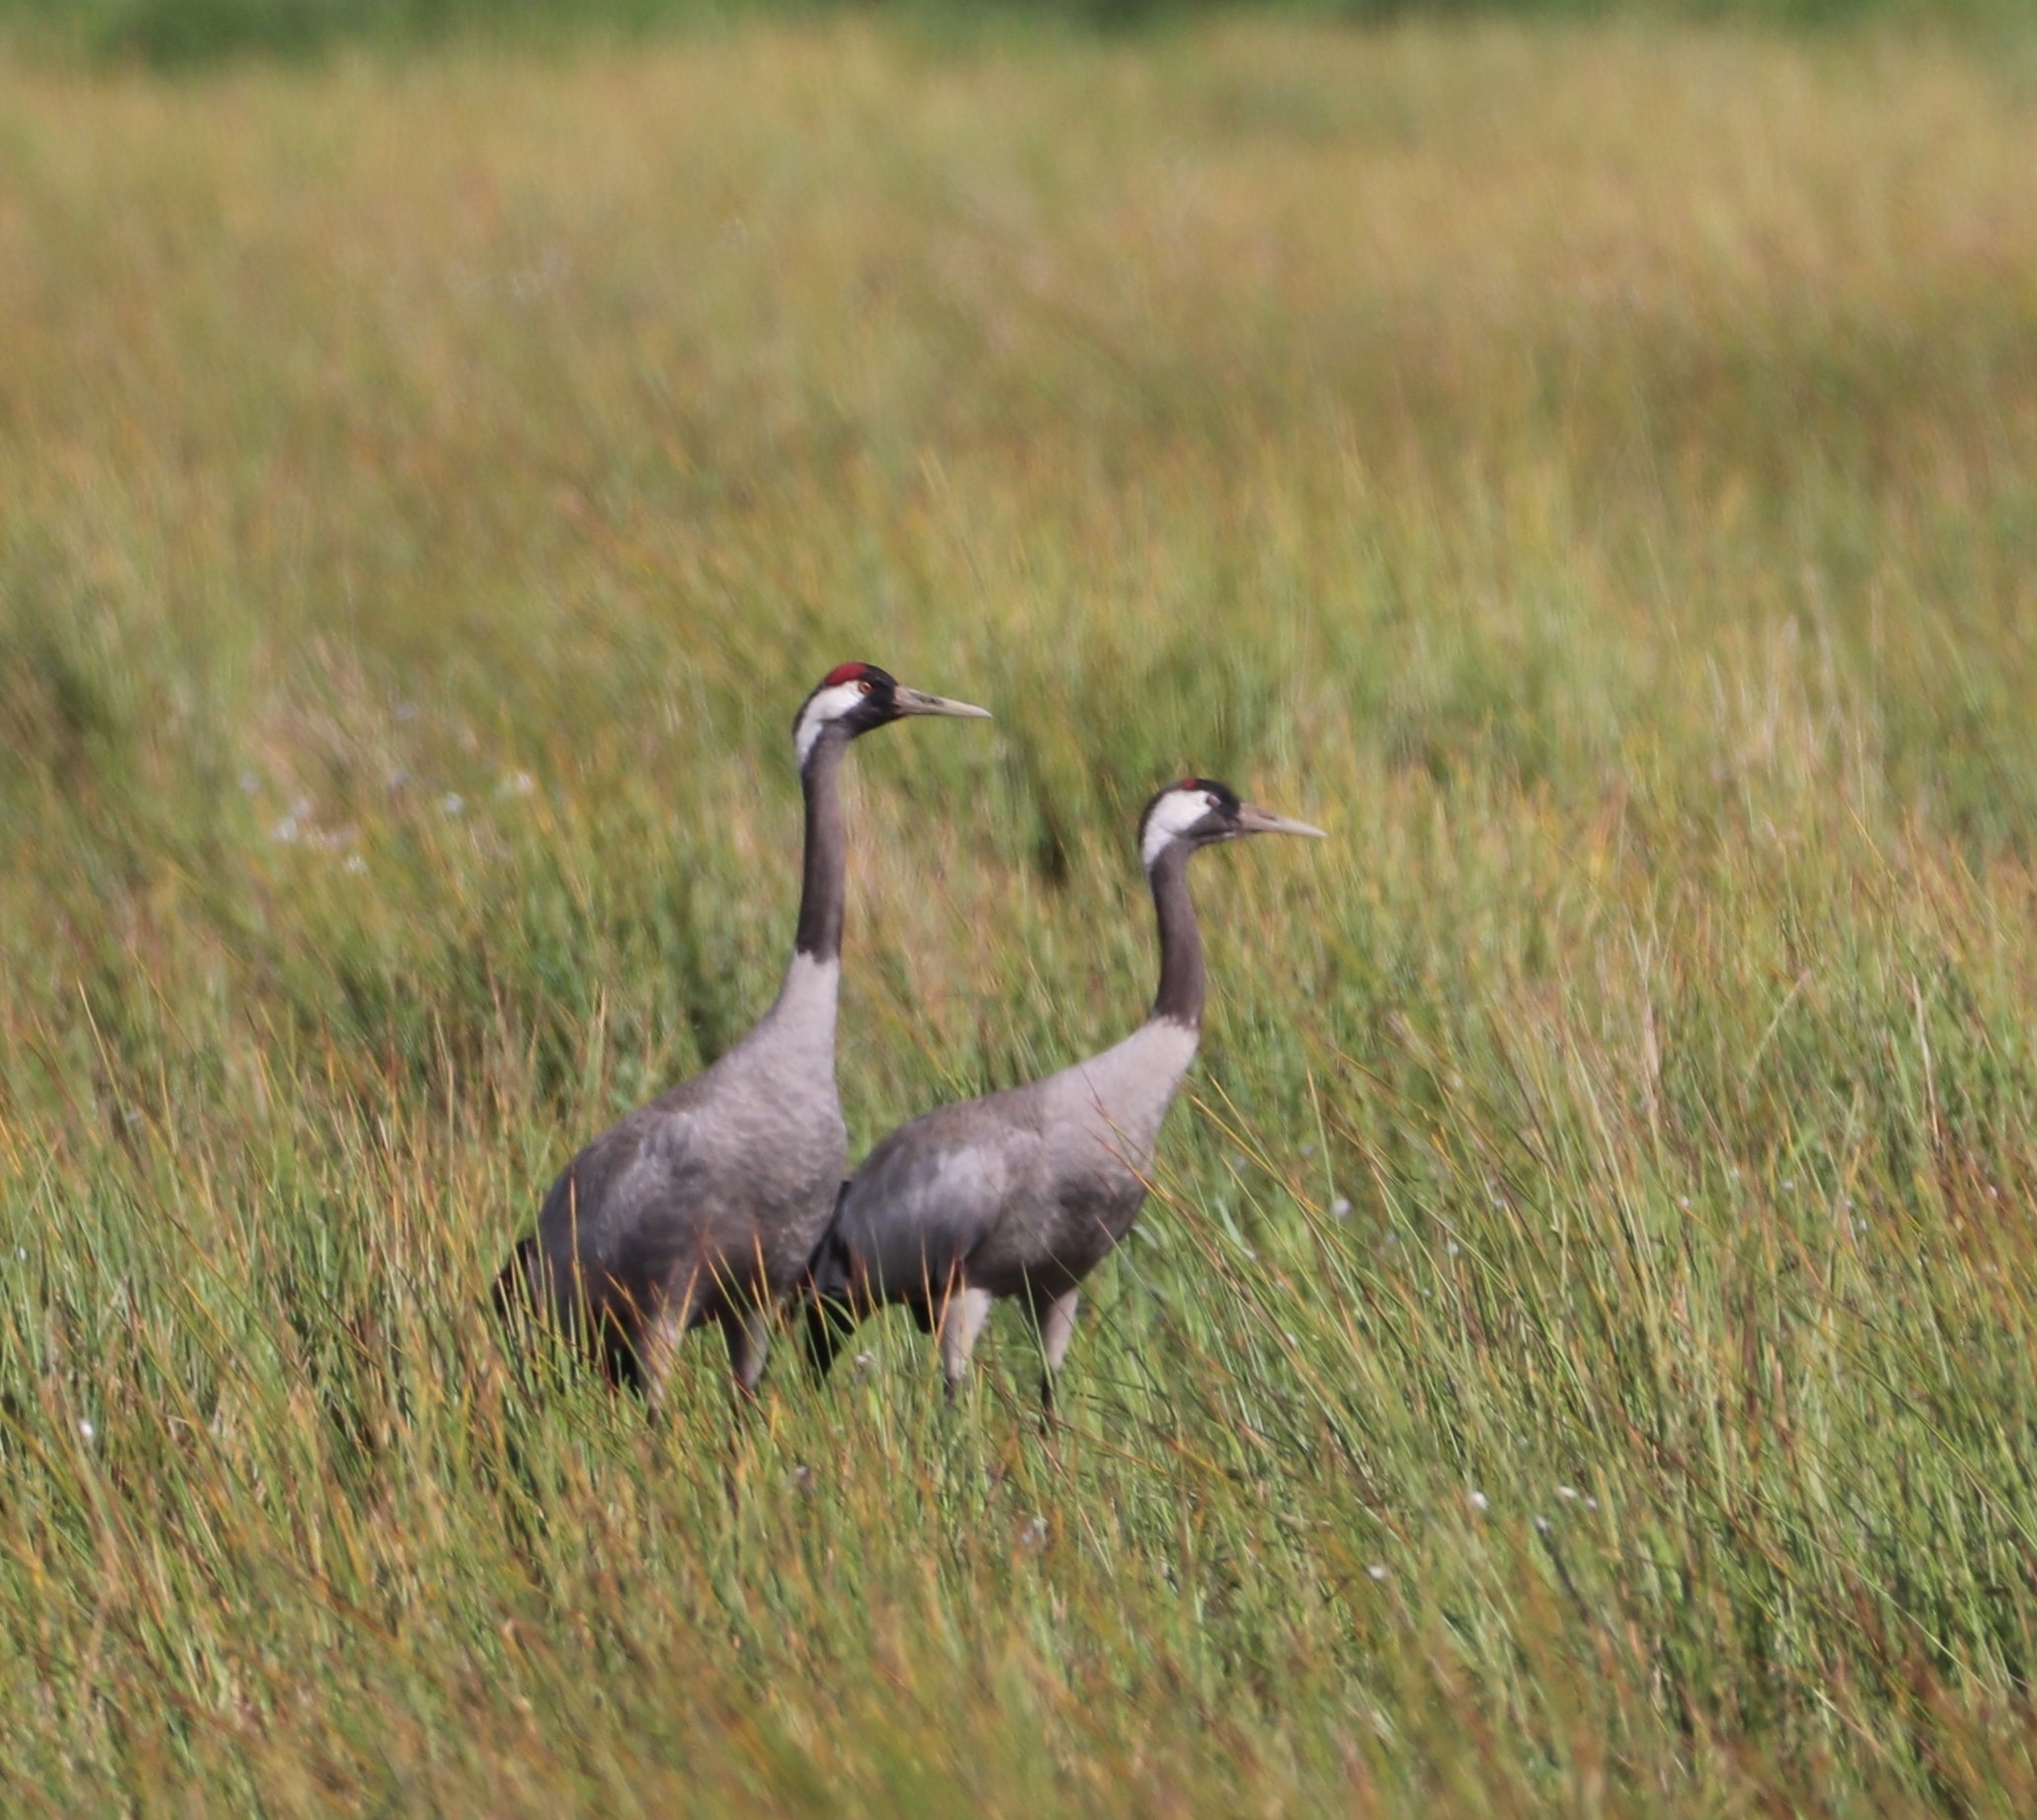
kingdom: Animalia
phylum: Chordata
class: Aves
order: Gruiformes
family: Gruidae
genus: Grus
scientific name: Grus grus
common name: Trane
